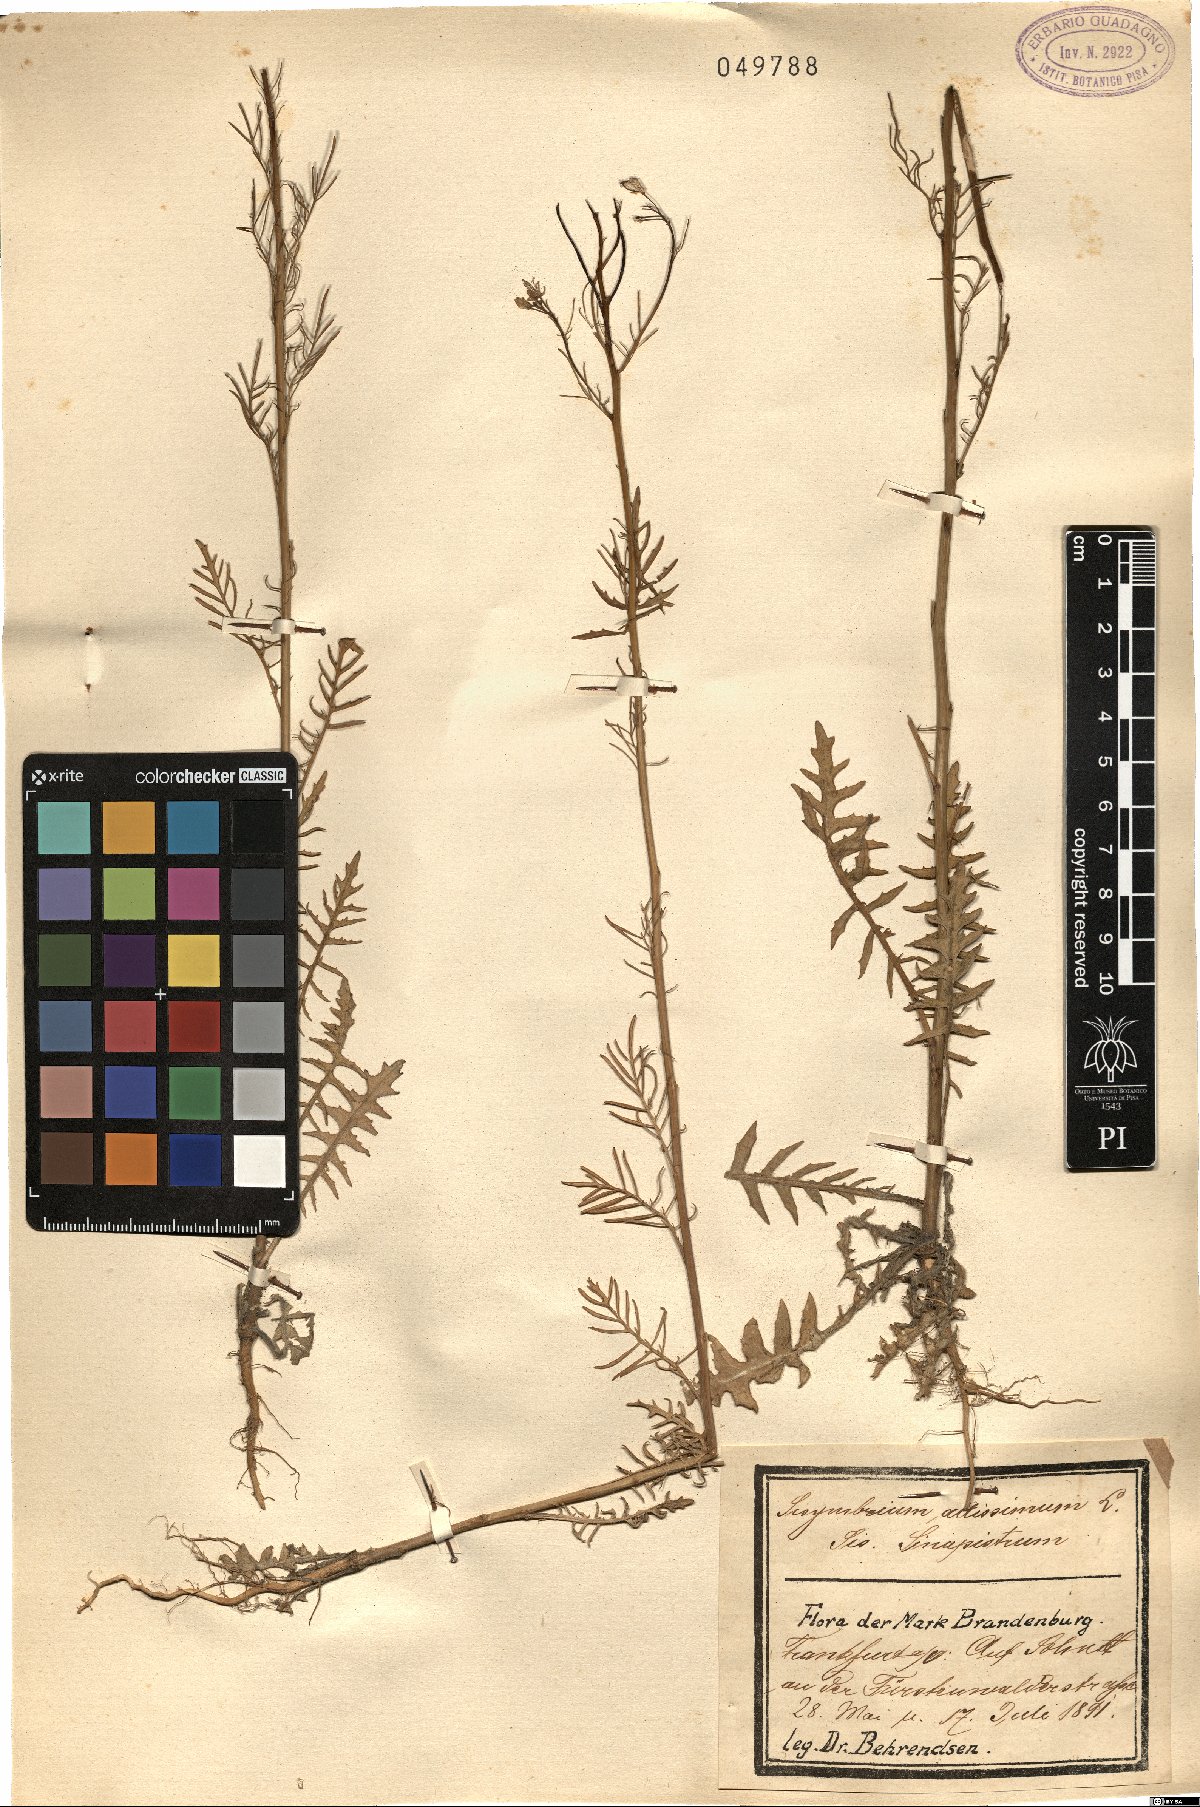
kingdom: Plantae
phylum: Tracheophyta
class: Magnoliopsida
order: Brassicales
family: Brassicaceae
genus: Sisymbrium
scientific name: Sisymbrium altissimum
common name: Tall rocket
